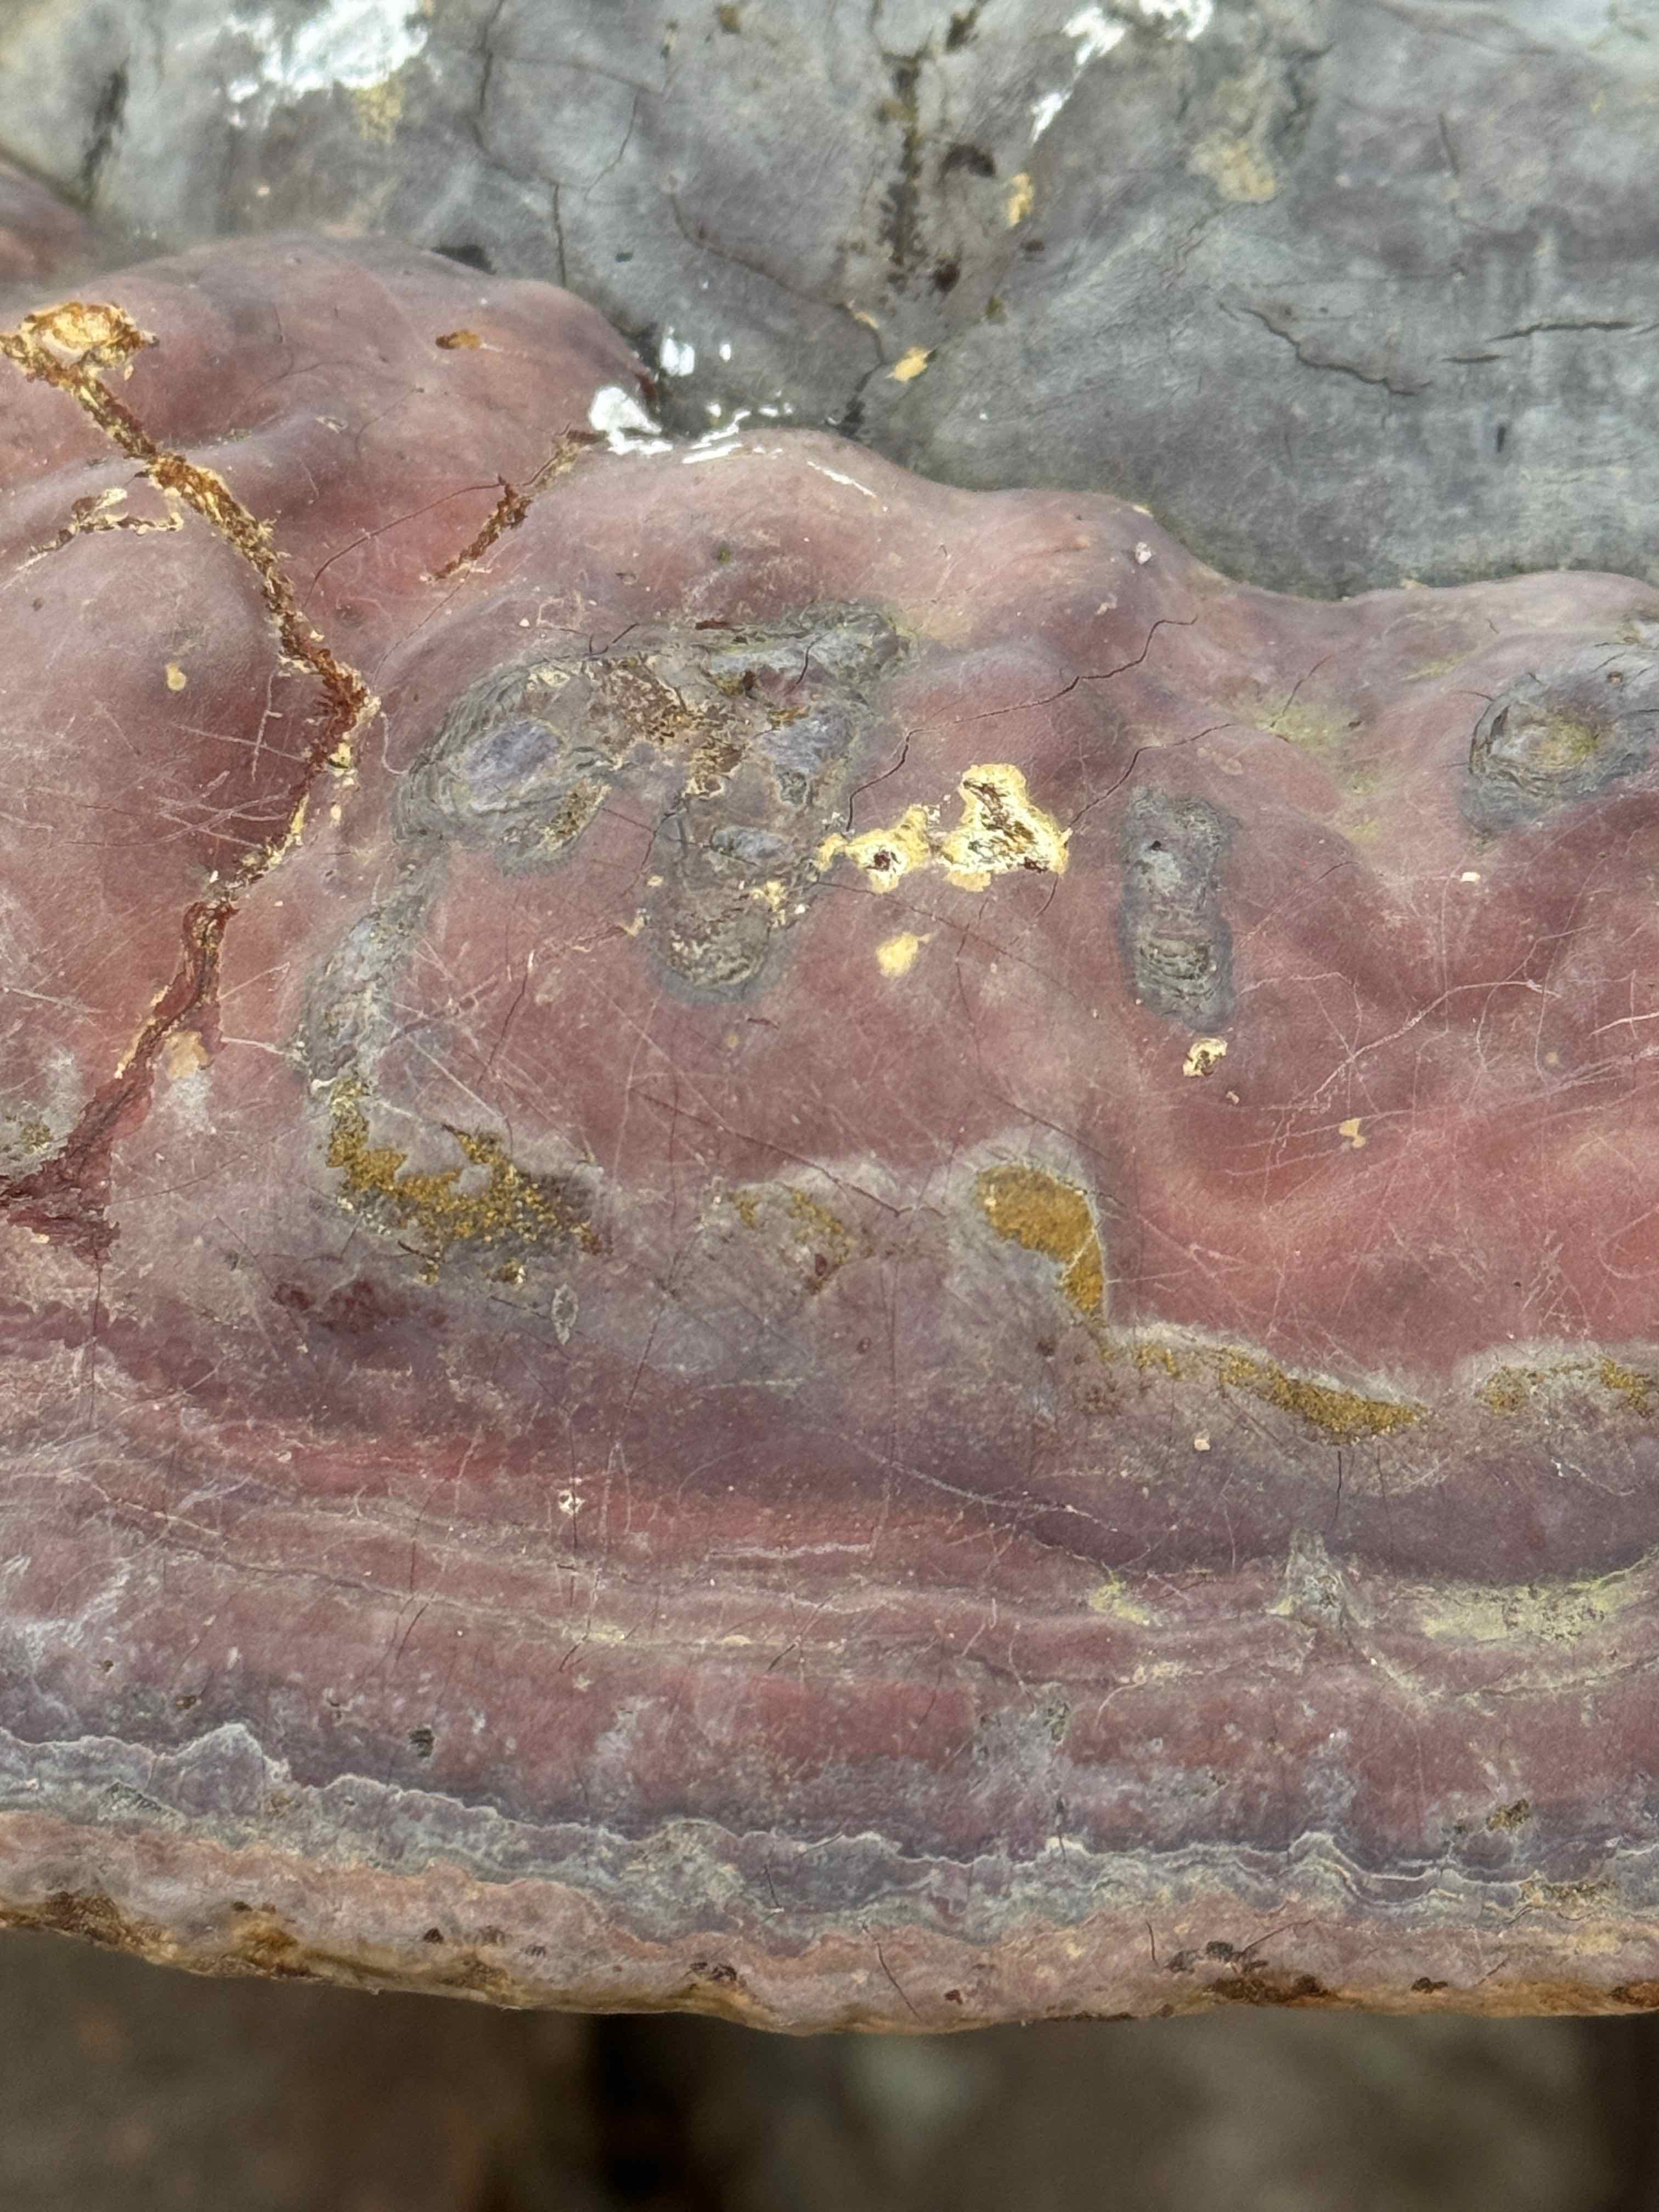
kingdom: Fungi
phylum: Basidiomycota
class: Agaricomycetes
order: Polyporales
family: Polyporaceae
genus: Ganoderma
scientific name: Ganoderma pfeifferi
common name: kobberrød lakporesvamp
